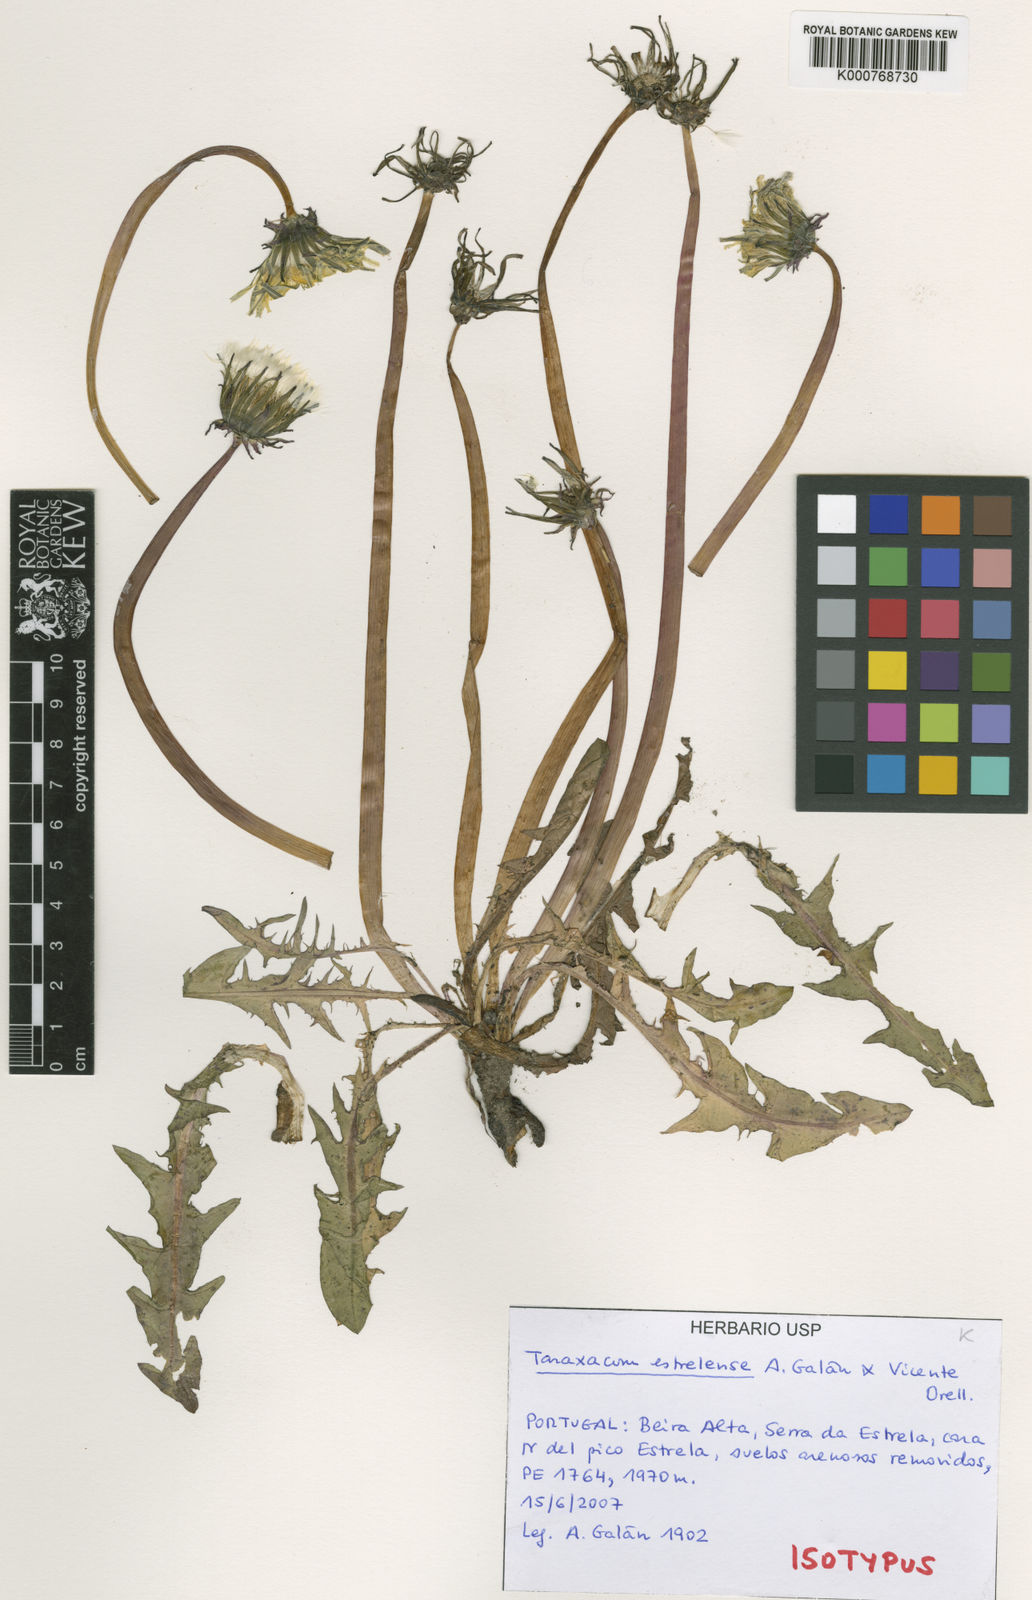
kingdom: Plantae
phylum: Tracheophyta
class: Magnoliopsida
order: Asterales
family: Asteraceae
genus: Taraxacum
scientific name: Taraxacum
